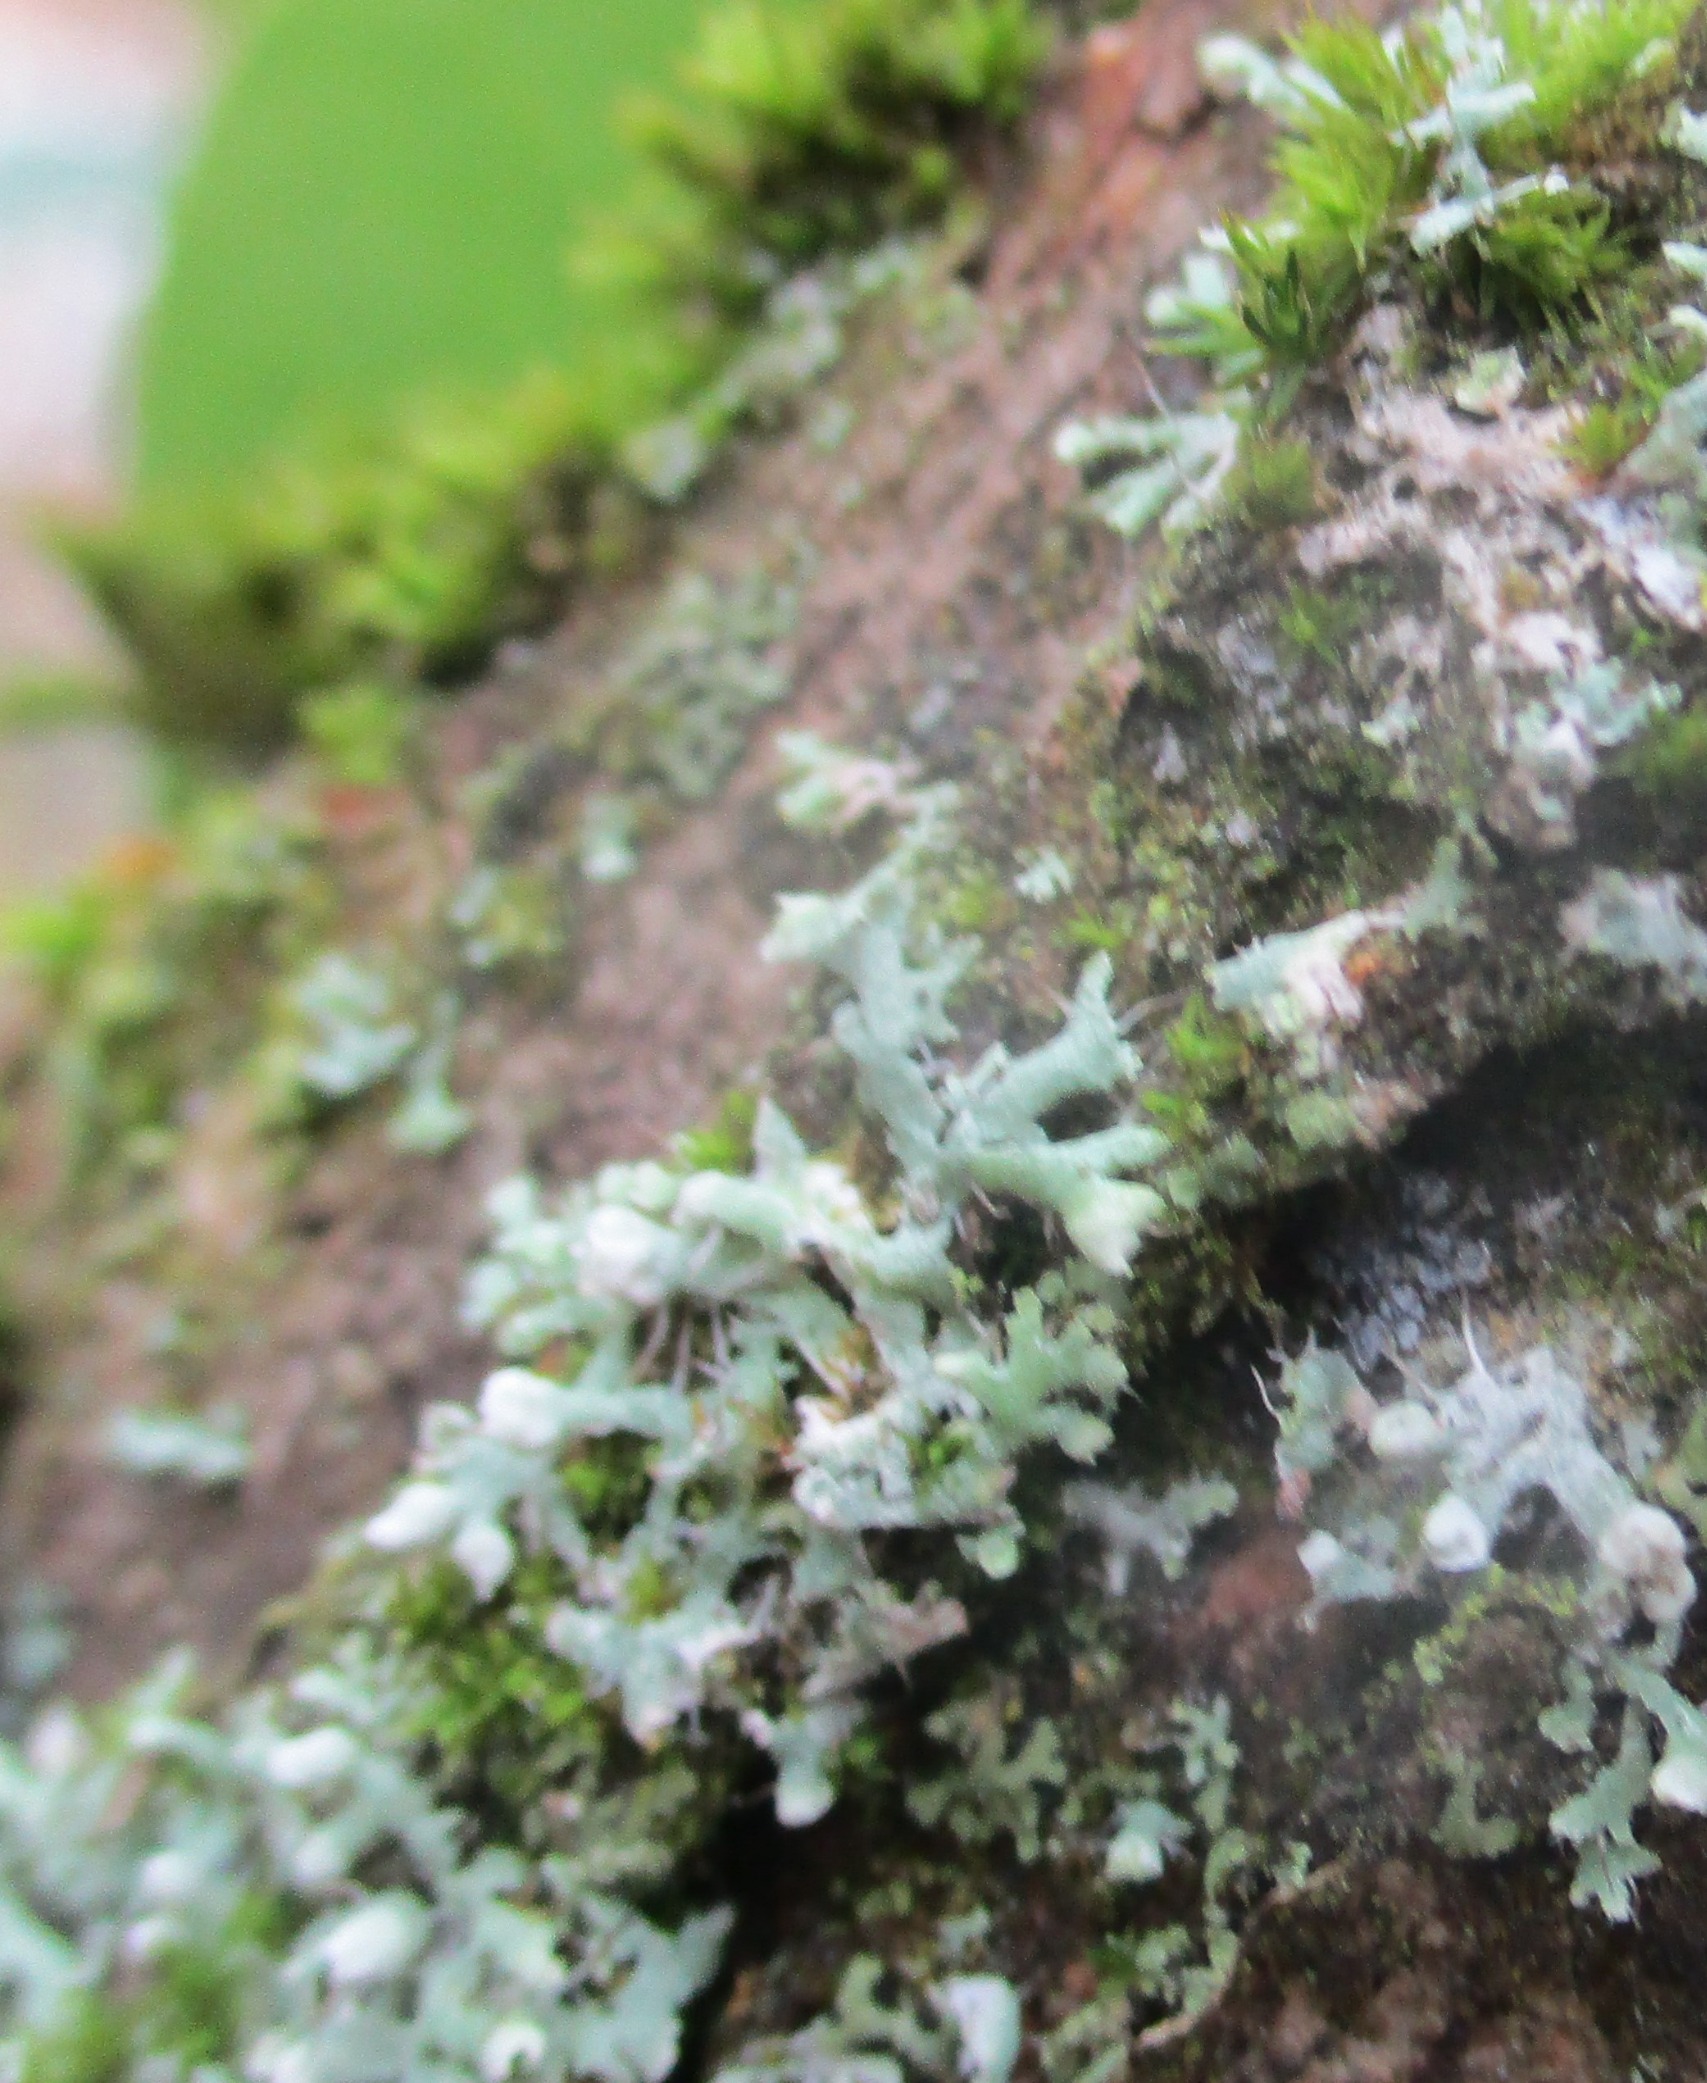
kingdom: Fungi
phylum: Ascomycota
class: Lecanoromycetes
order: Caliciales
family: Physciaceae
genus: Physcia
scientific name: Physcia adscendens
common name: Hætte-rosetlav
